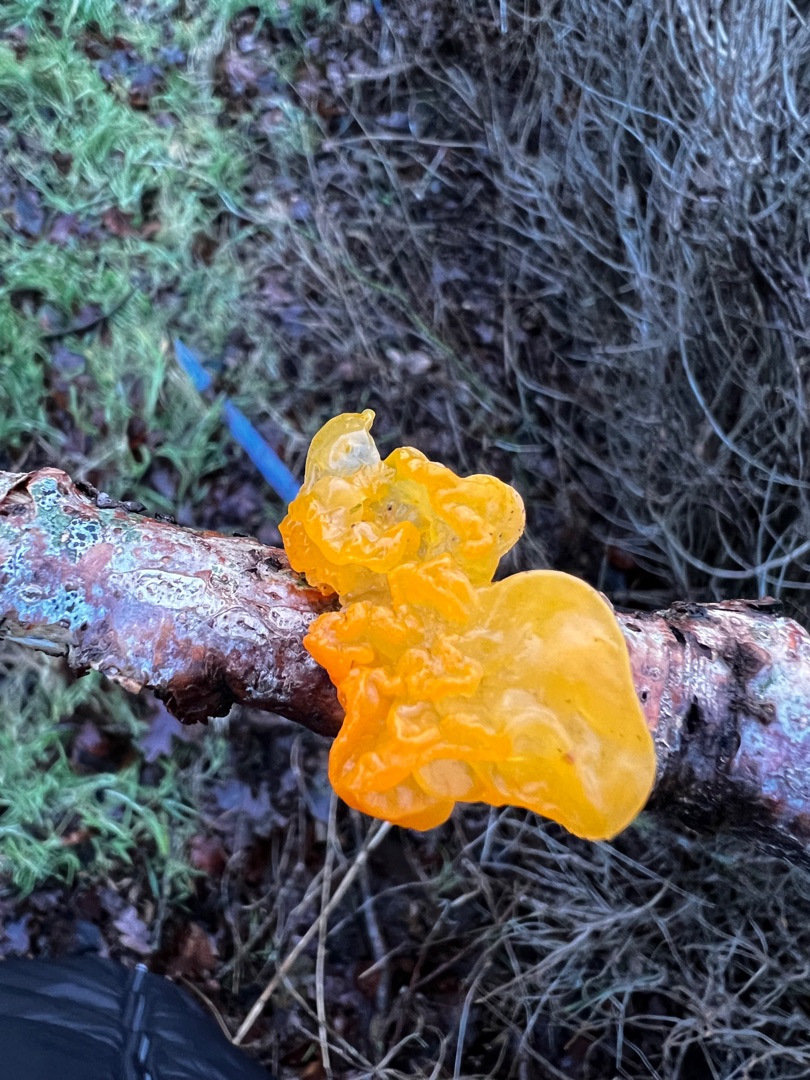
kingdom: Fungi
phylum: Basidiomycota
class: Tremellomycetes
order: Tremellales
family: Tremellaceae
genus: Tremella
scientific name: Tremella mesenterica
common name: Gul bævresvamp
